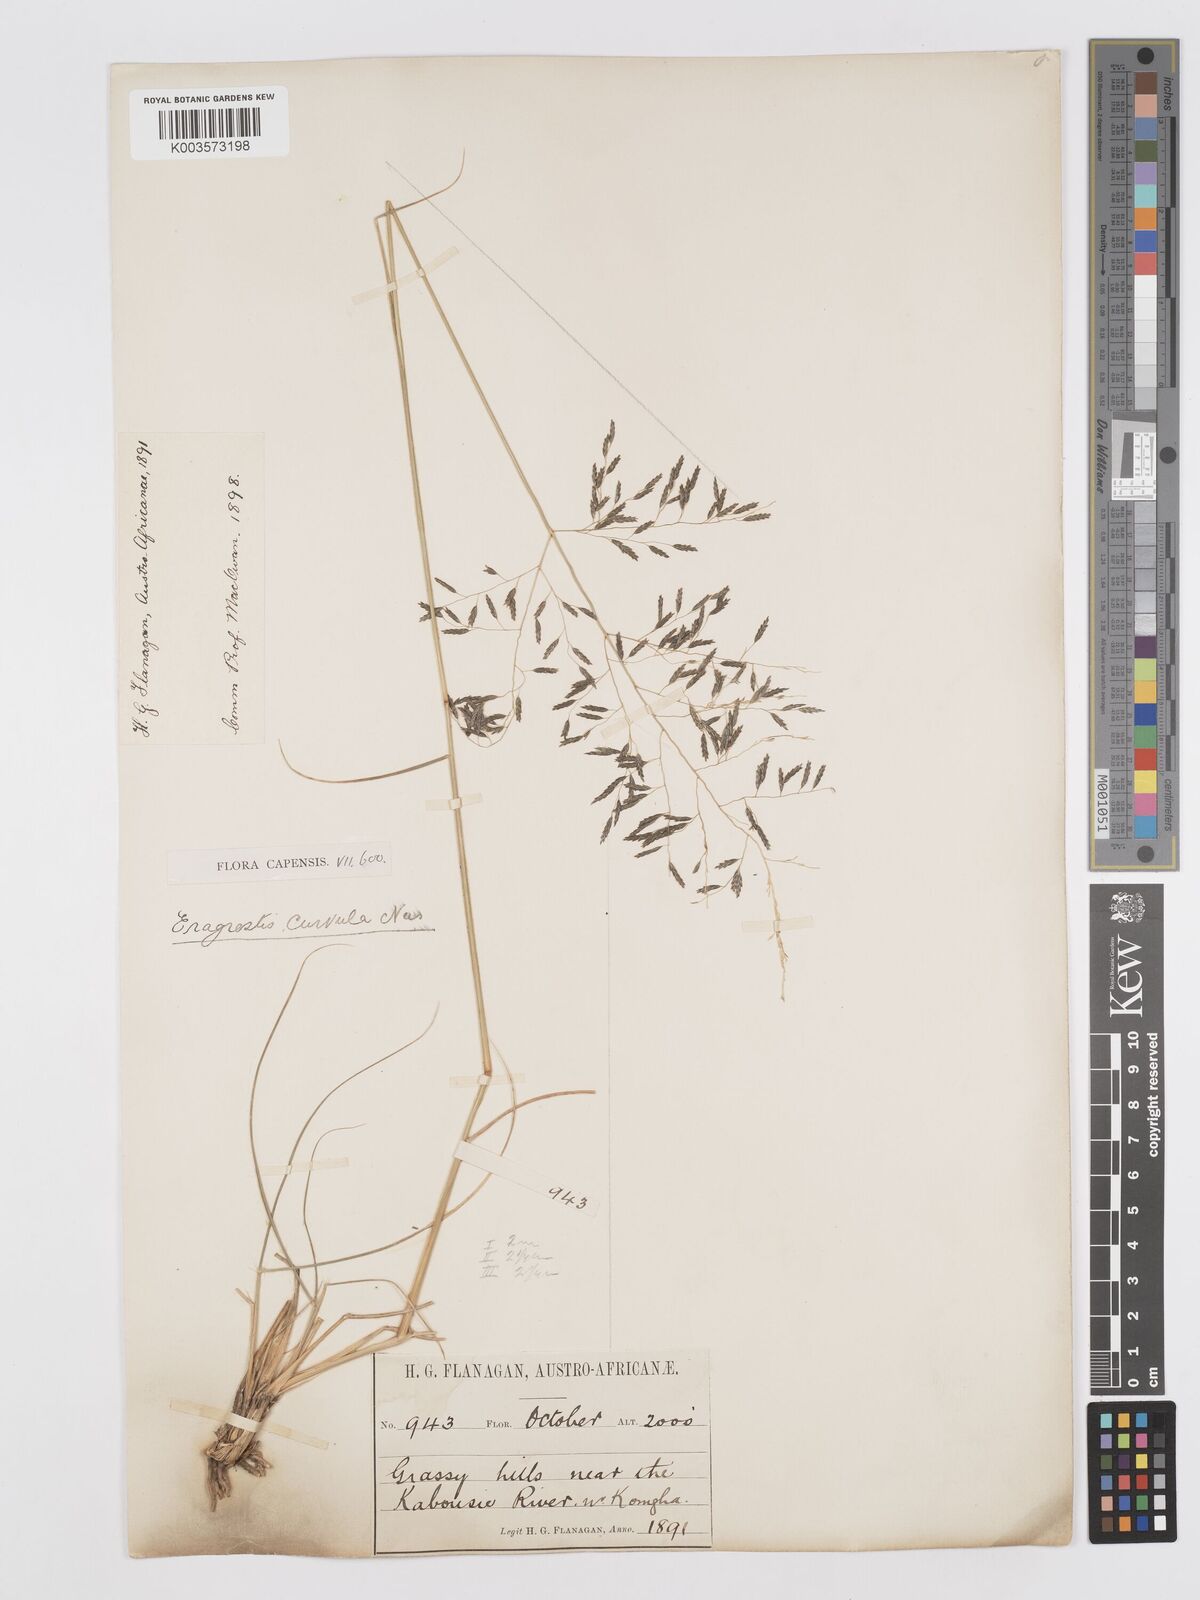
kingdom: Plantae
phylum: Tracheophyta
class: Liliopsida
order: Poales
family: Poaceae
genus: Eragrostis
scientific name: Eragrostis curvula
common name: African love-grass
